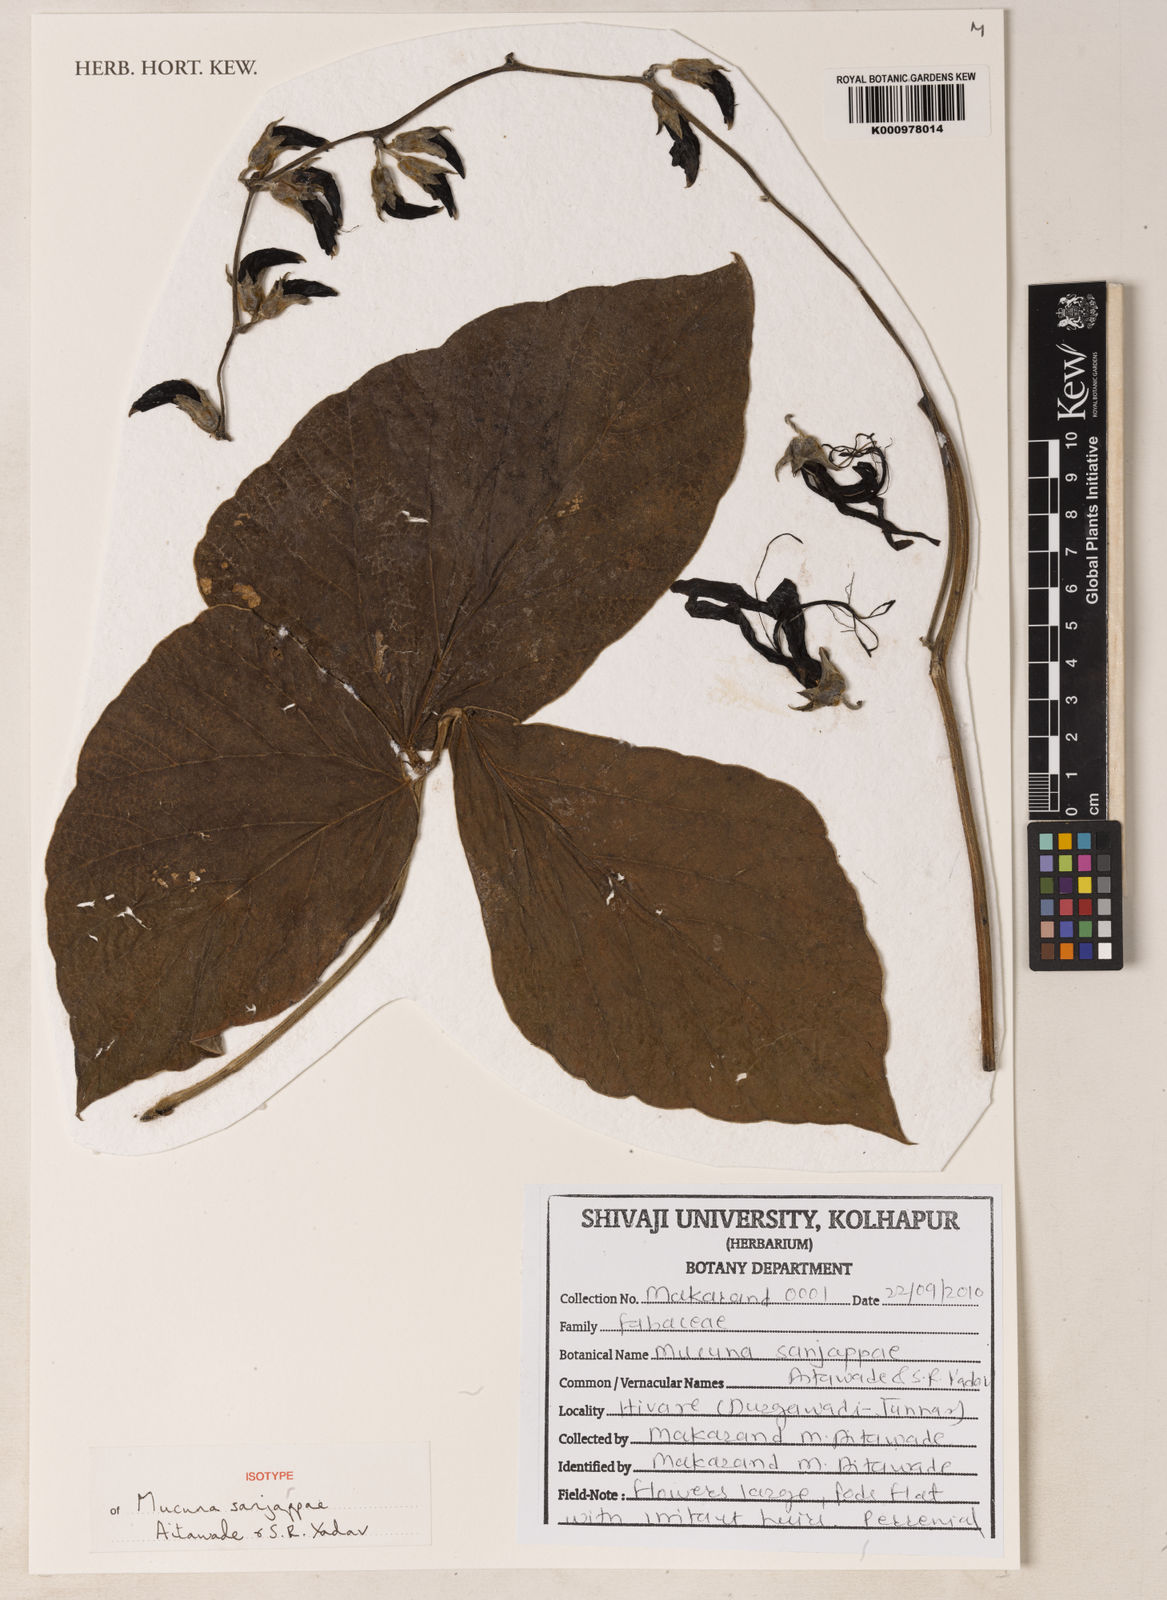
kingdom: Plantae
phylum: Tracheophyta
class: Magnoliopsida
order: Fabales
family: Fabaceae
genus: Mucuna
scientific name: Mucuna sanjappae
